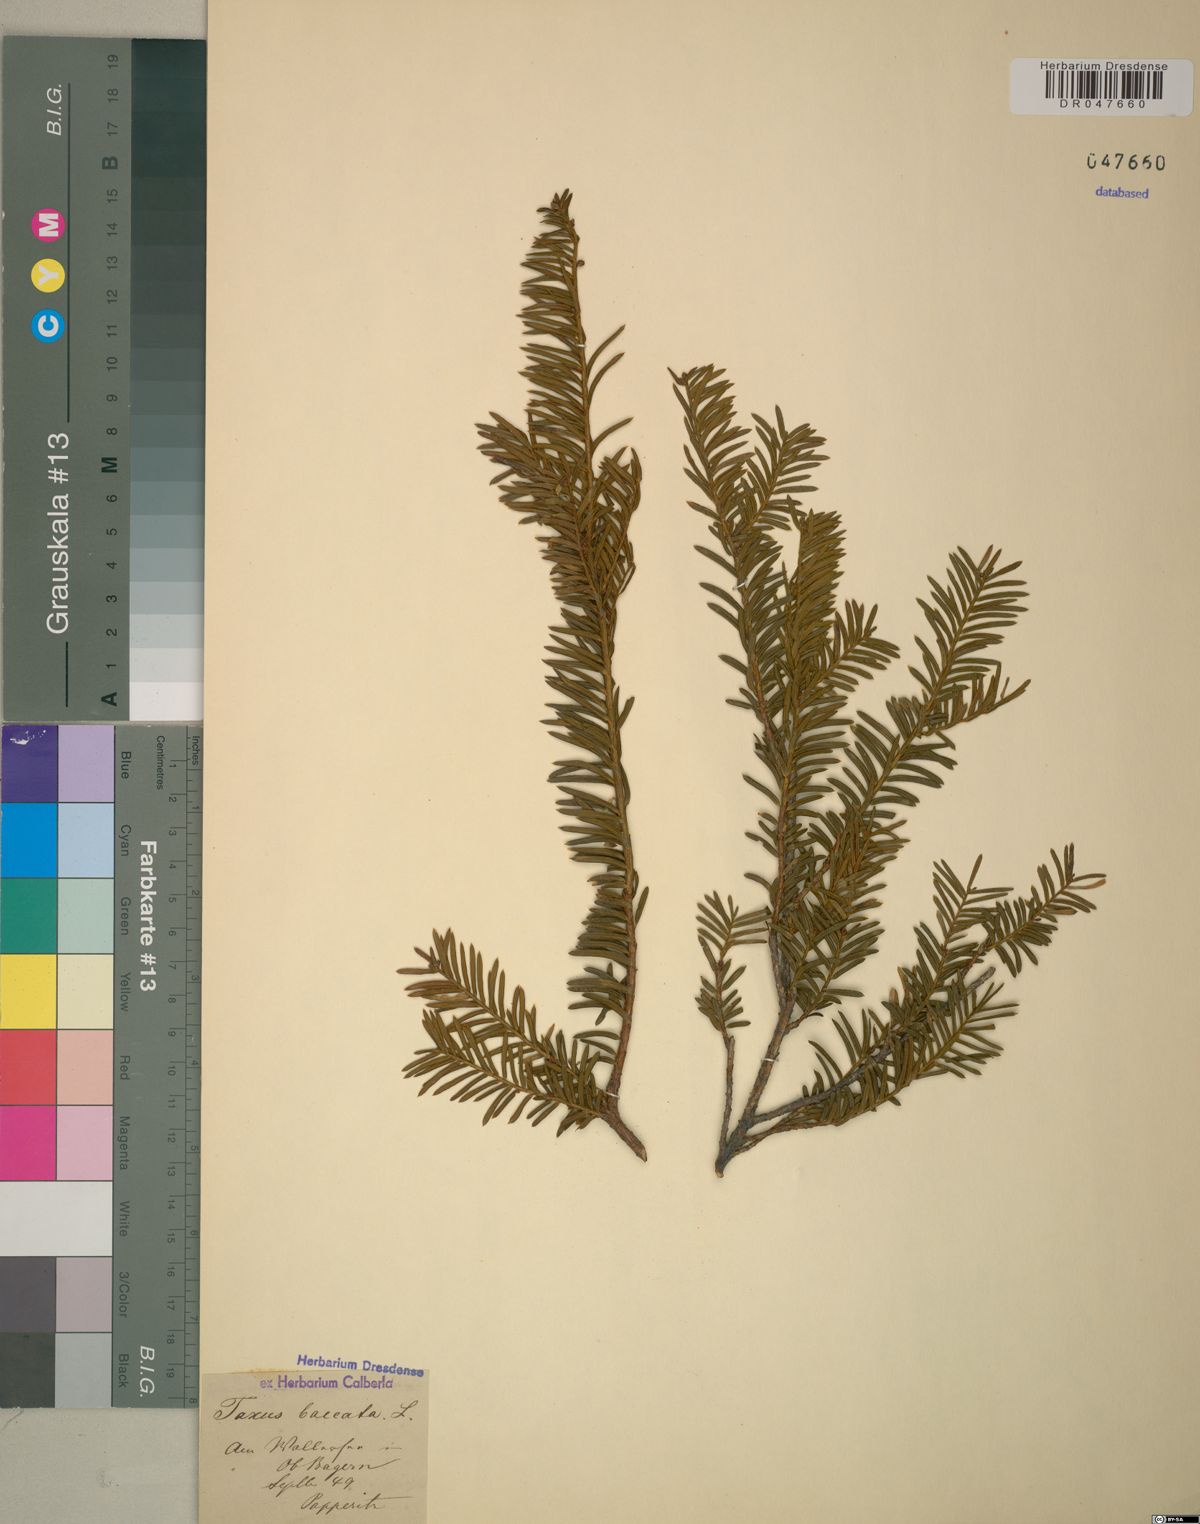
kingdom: Plantae
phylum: Tracheophyta
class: Pinopsida
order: Pinales
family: Taxaceae
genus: Taxus
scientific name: Taxus baccata
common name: Yew
